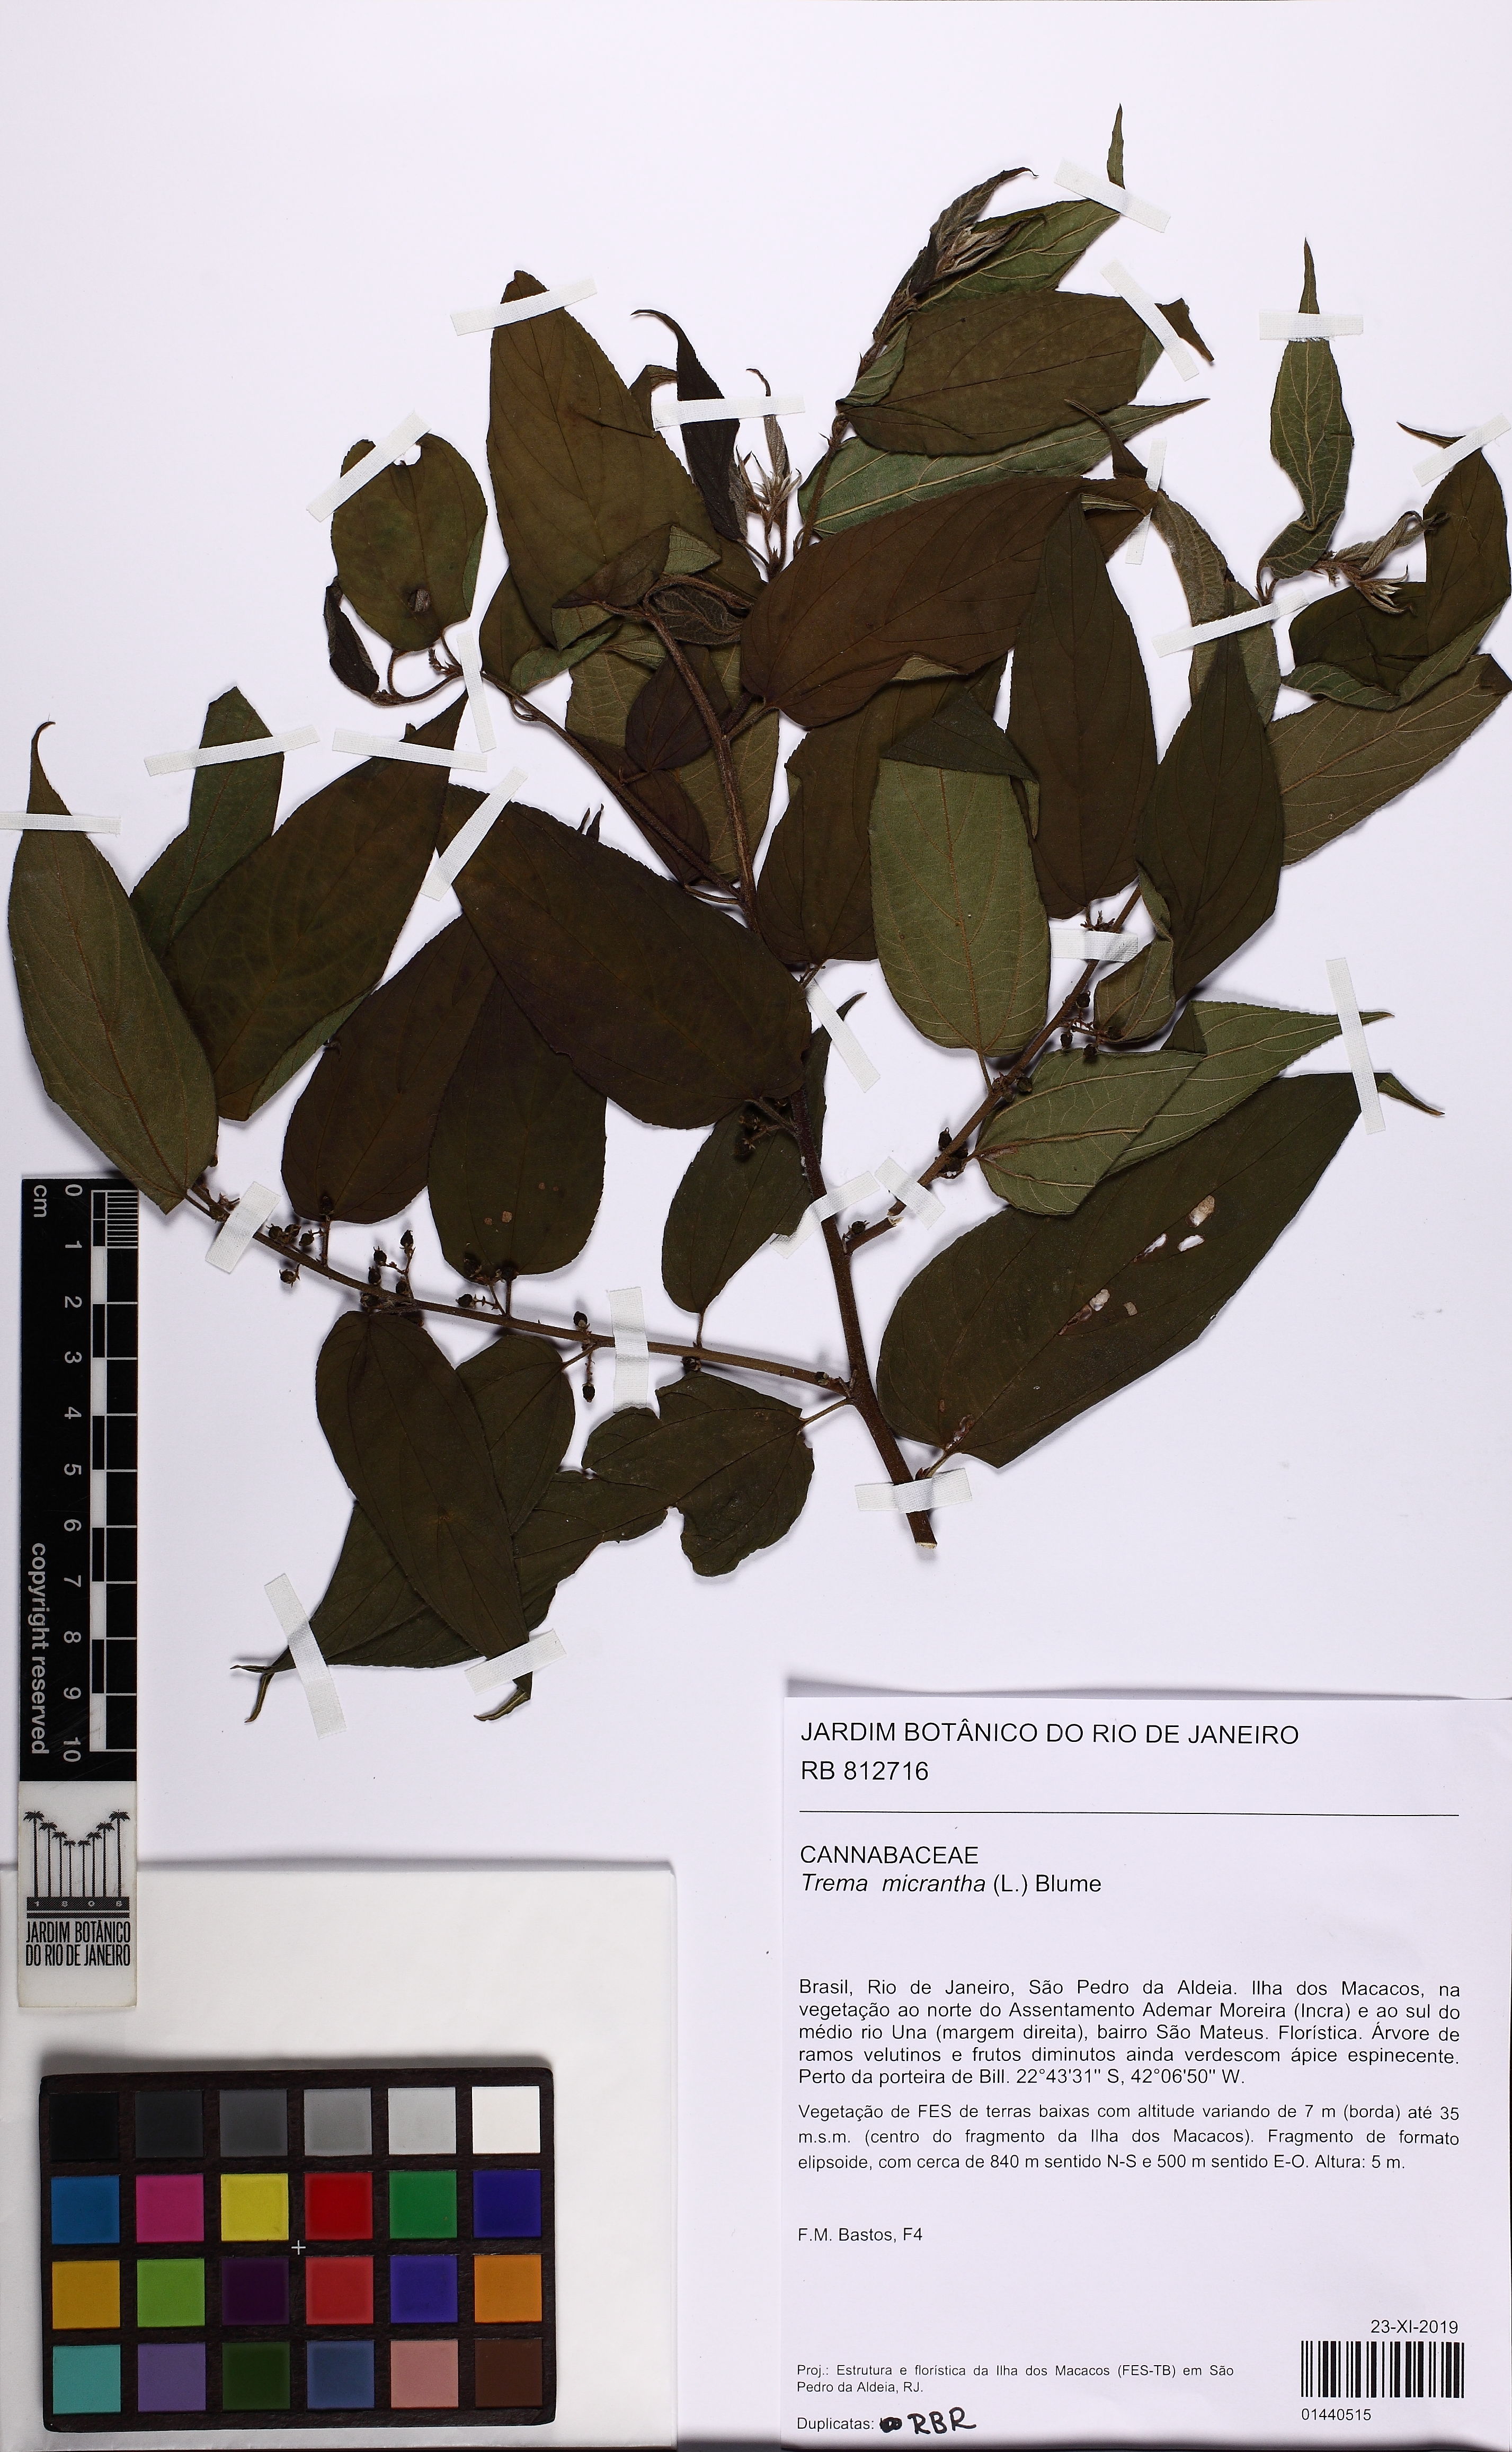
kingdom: Plantae
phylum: Tracheophyta
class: Magnoliopsida
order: Rosales
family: Cannabaceae
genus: Trema
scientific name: Trema micranthum
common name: Jamaican nettletree
